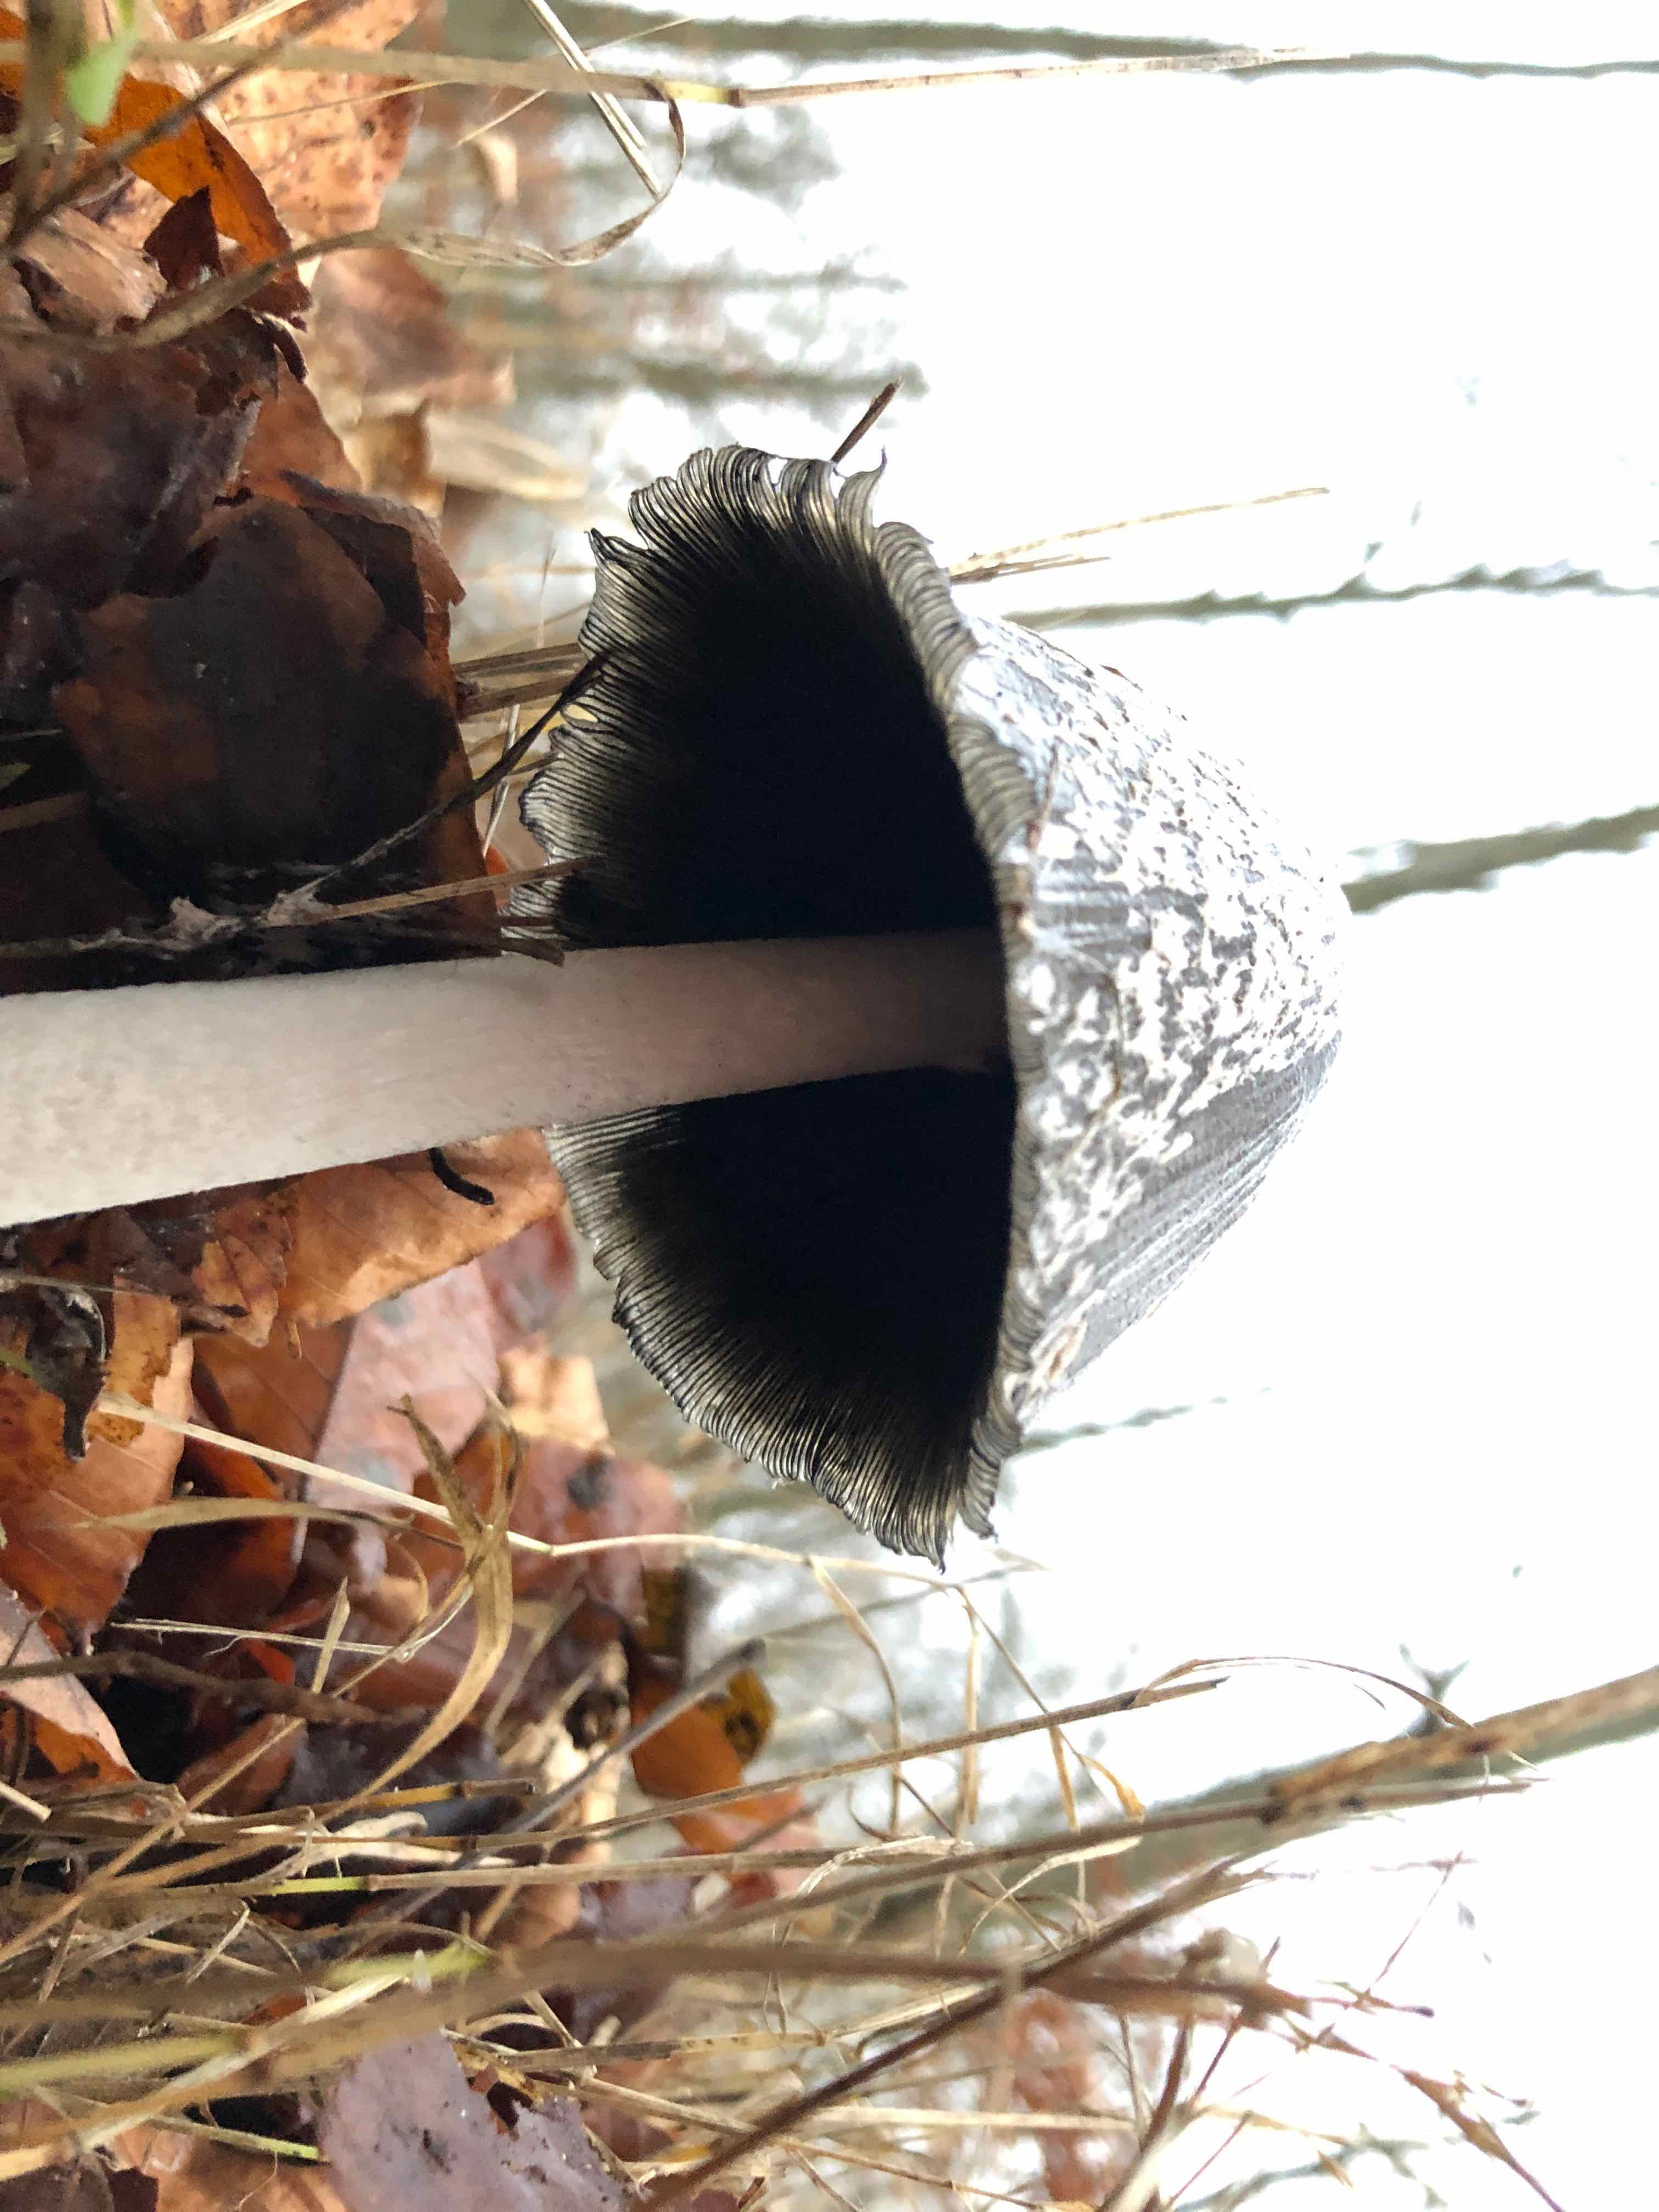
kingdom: Fungi
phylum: Basidiomycota
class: Agaricomycetes
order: Agaricales
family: Psathyrellaceae
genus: Coprinopsis
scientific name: Coprinopsis picacea
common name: skade-blækhat
